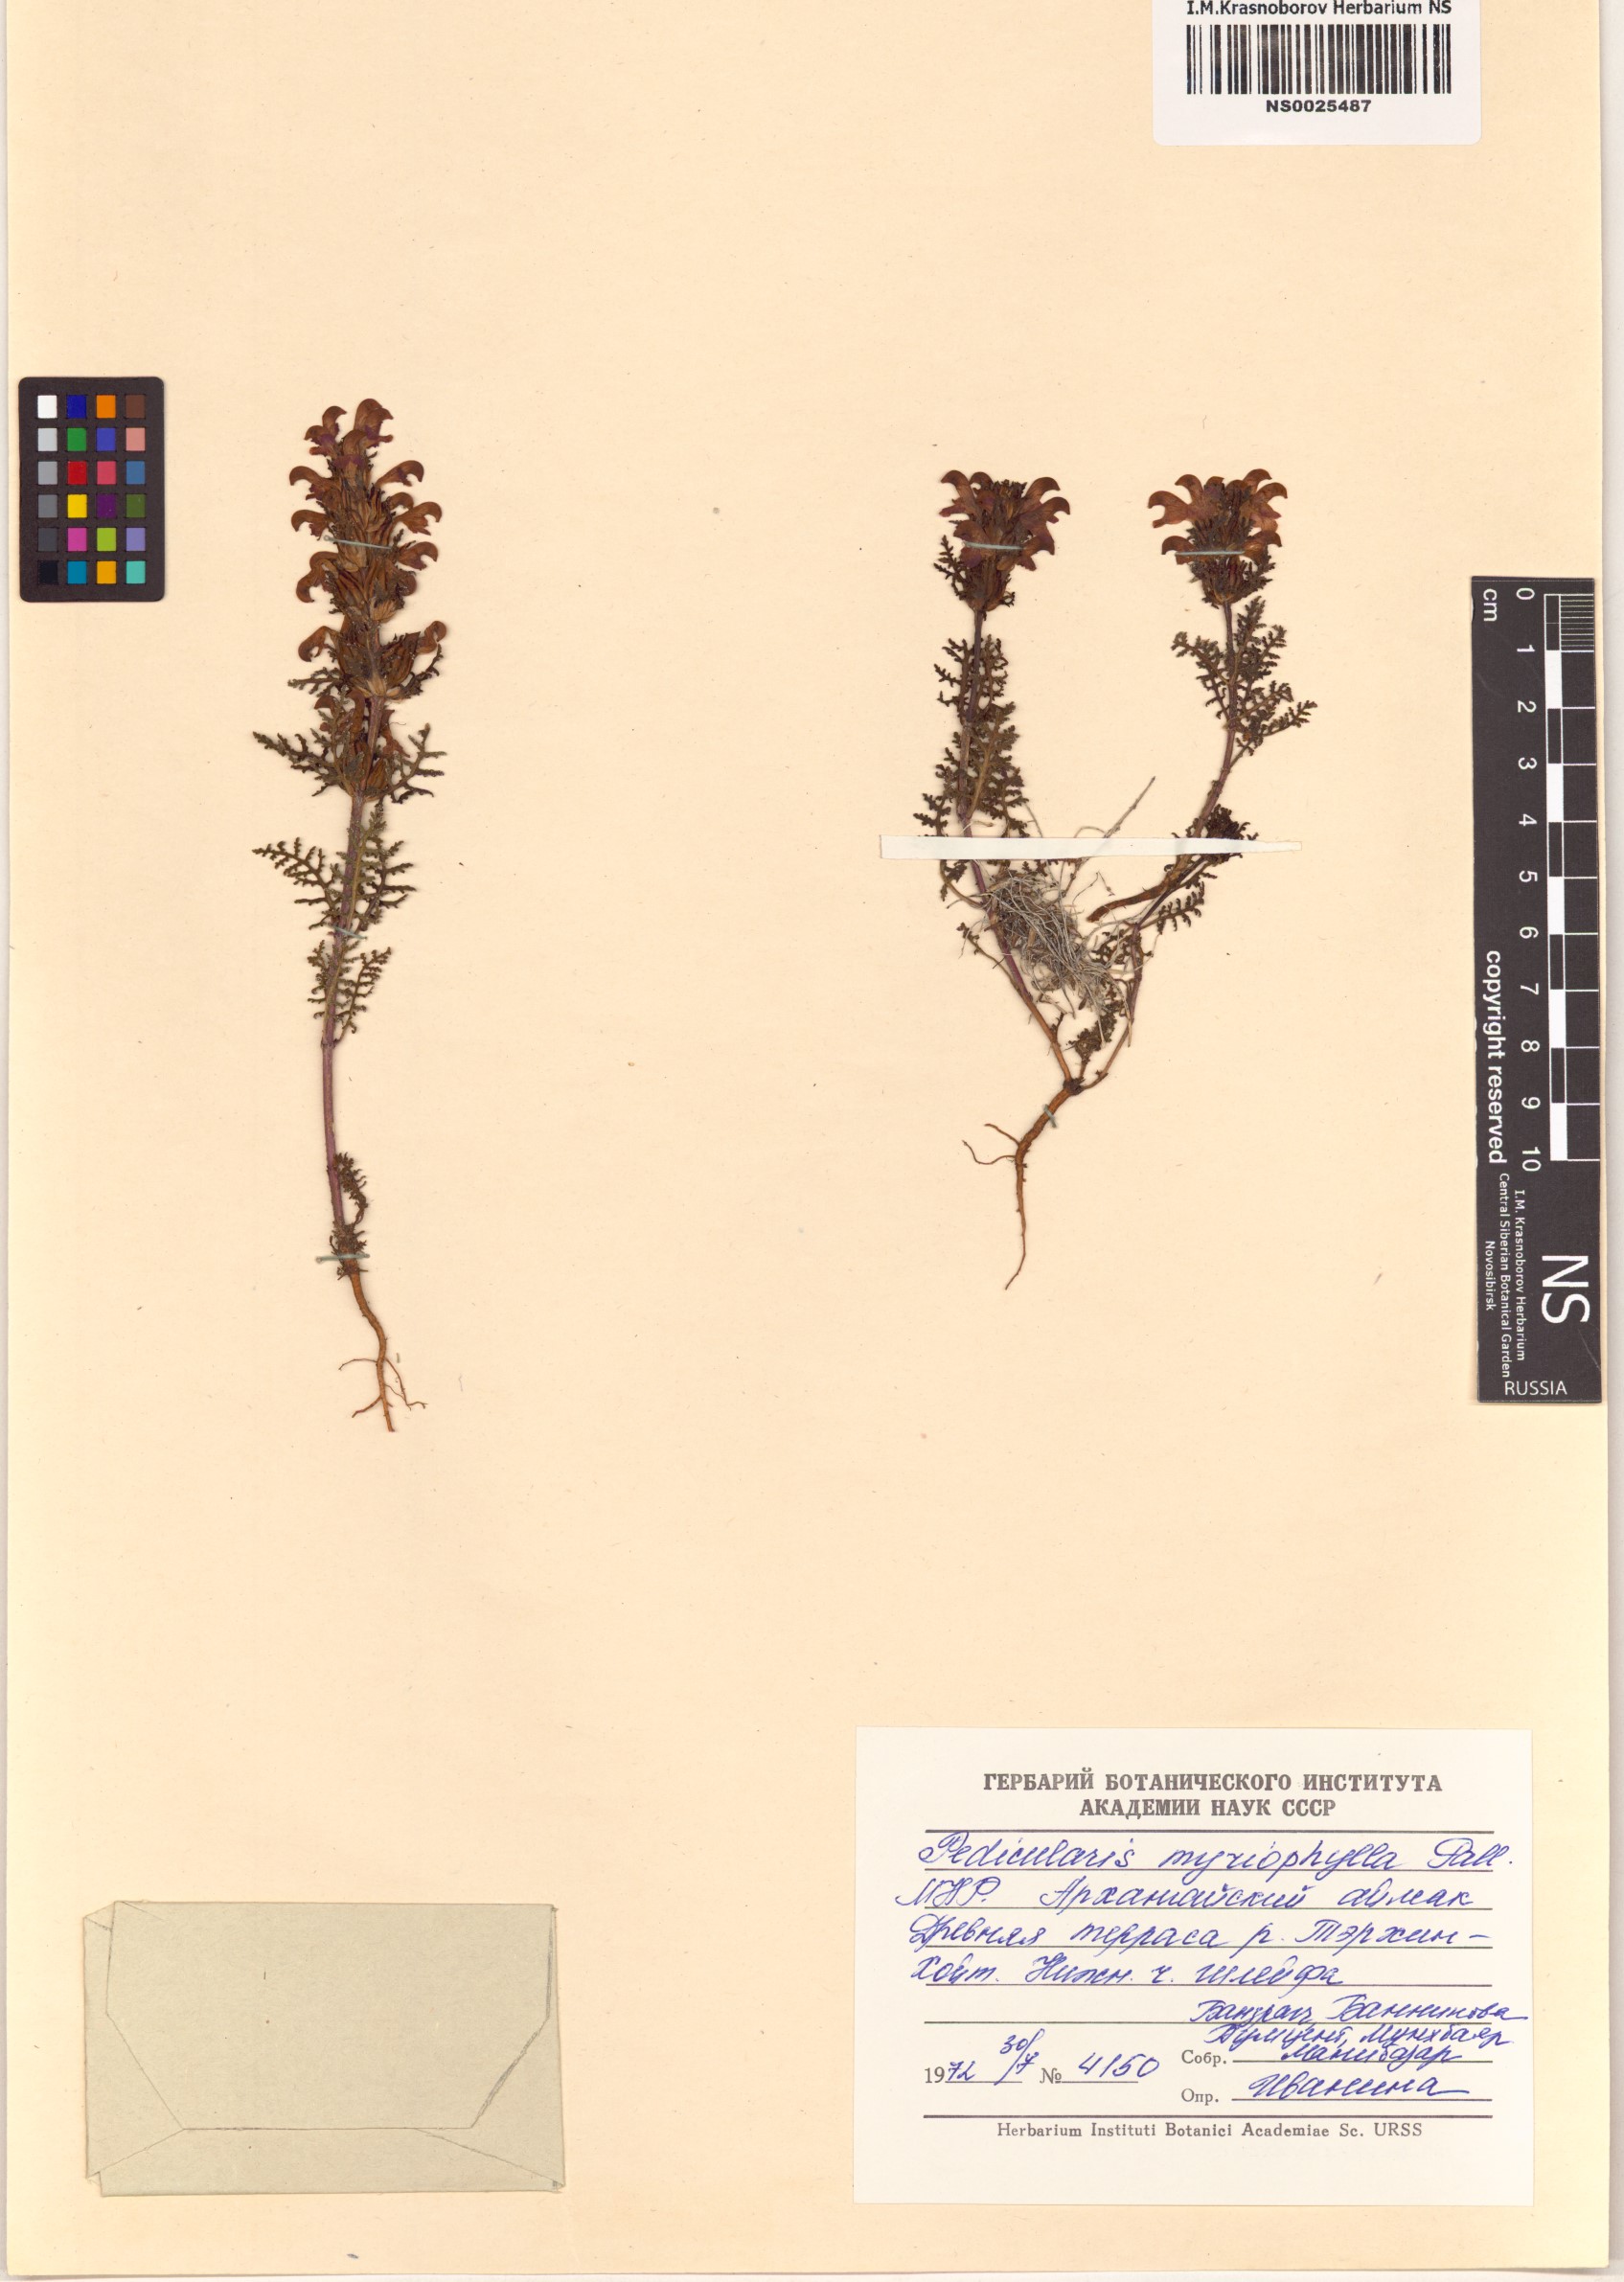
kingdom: Plantae
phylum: Tracheophyta
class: Magnoliopsida
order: Lamiales
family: Orobanchaceae
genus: Pedicularis
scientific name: Pedicularis myriophylla
